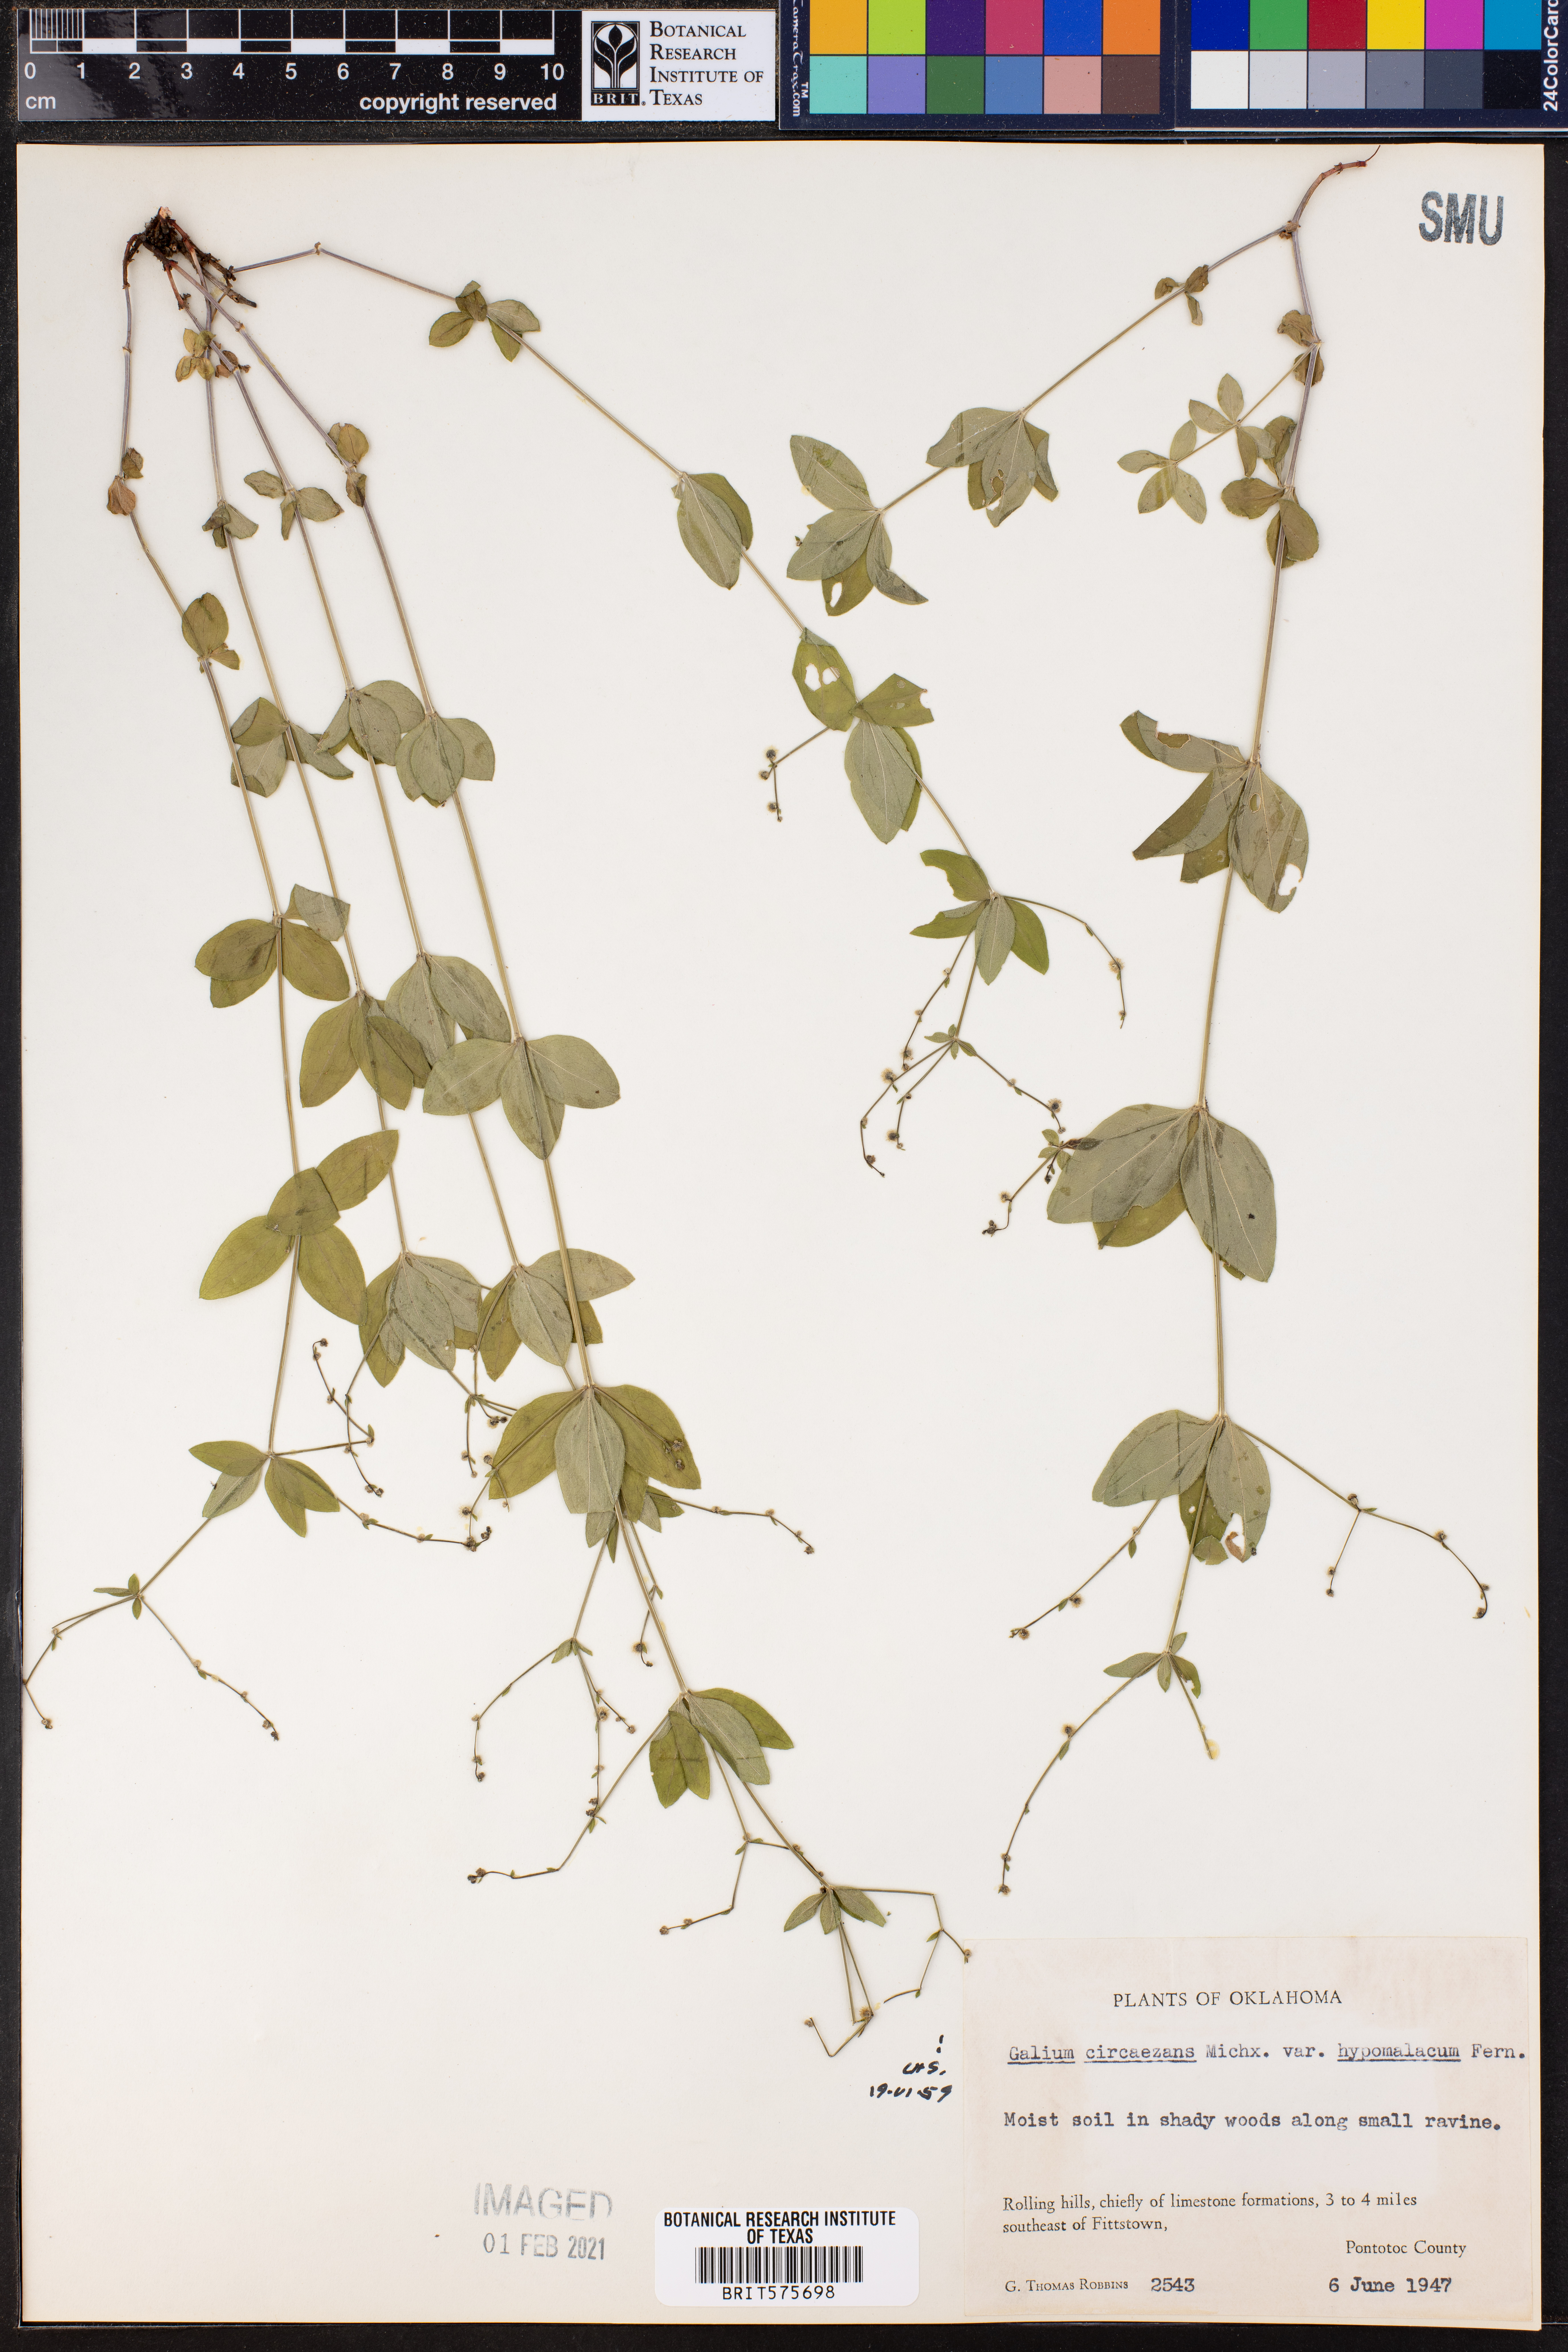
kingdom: Plantae
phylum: Tracheophyta
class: Magnoliopsida
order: Gentianales
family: Rubiaceae
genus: Galium
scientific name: Galium circaezans
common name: Forest bedstraw
